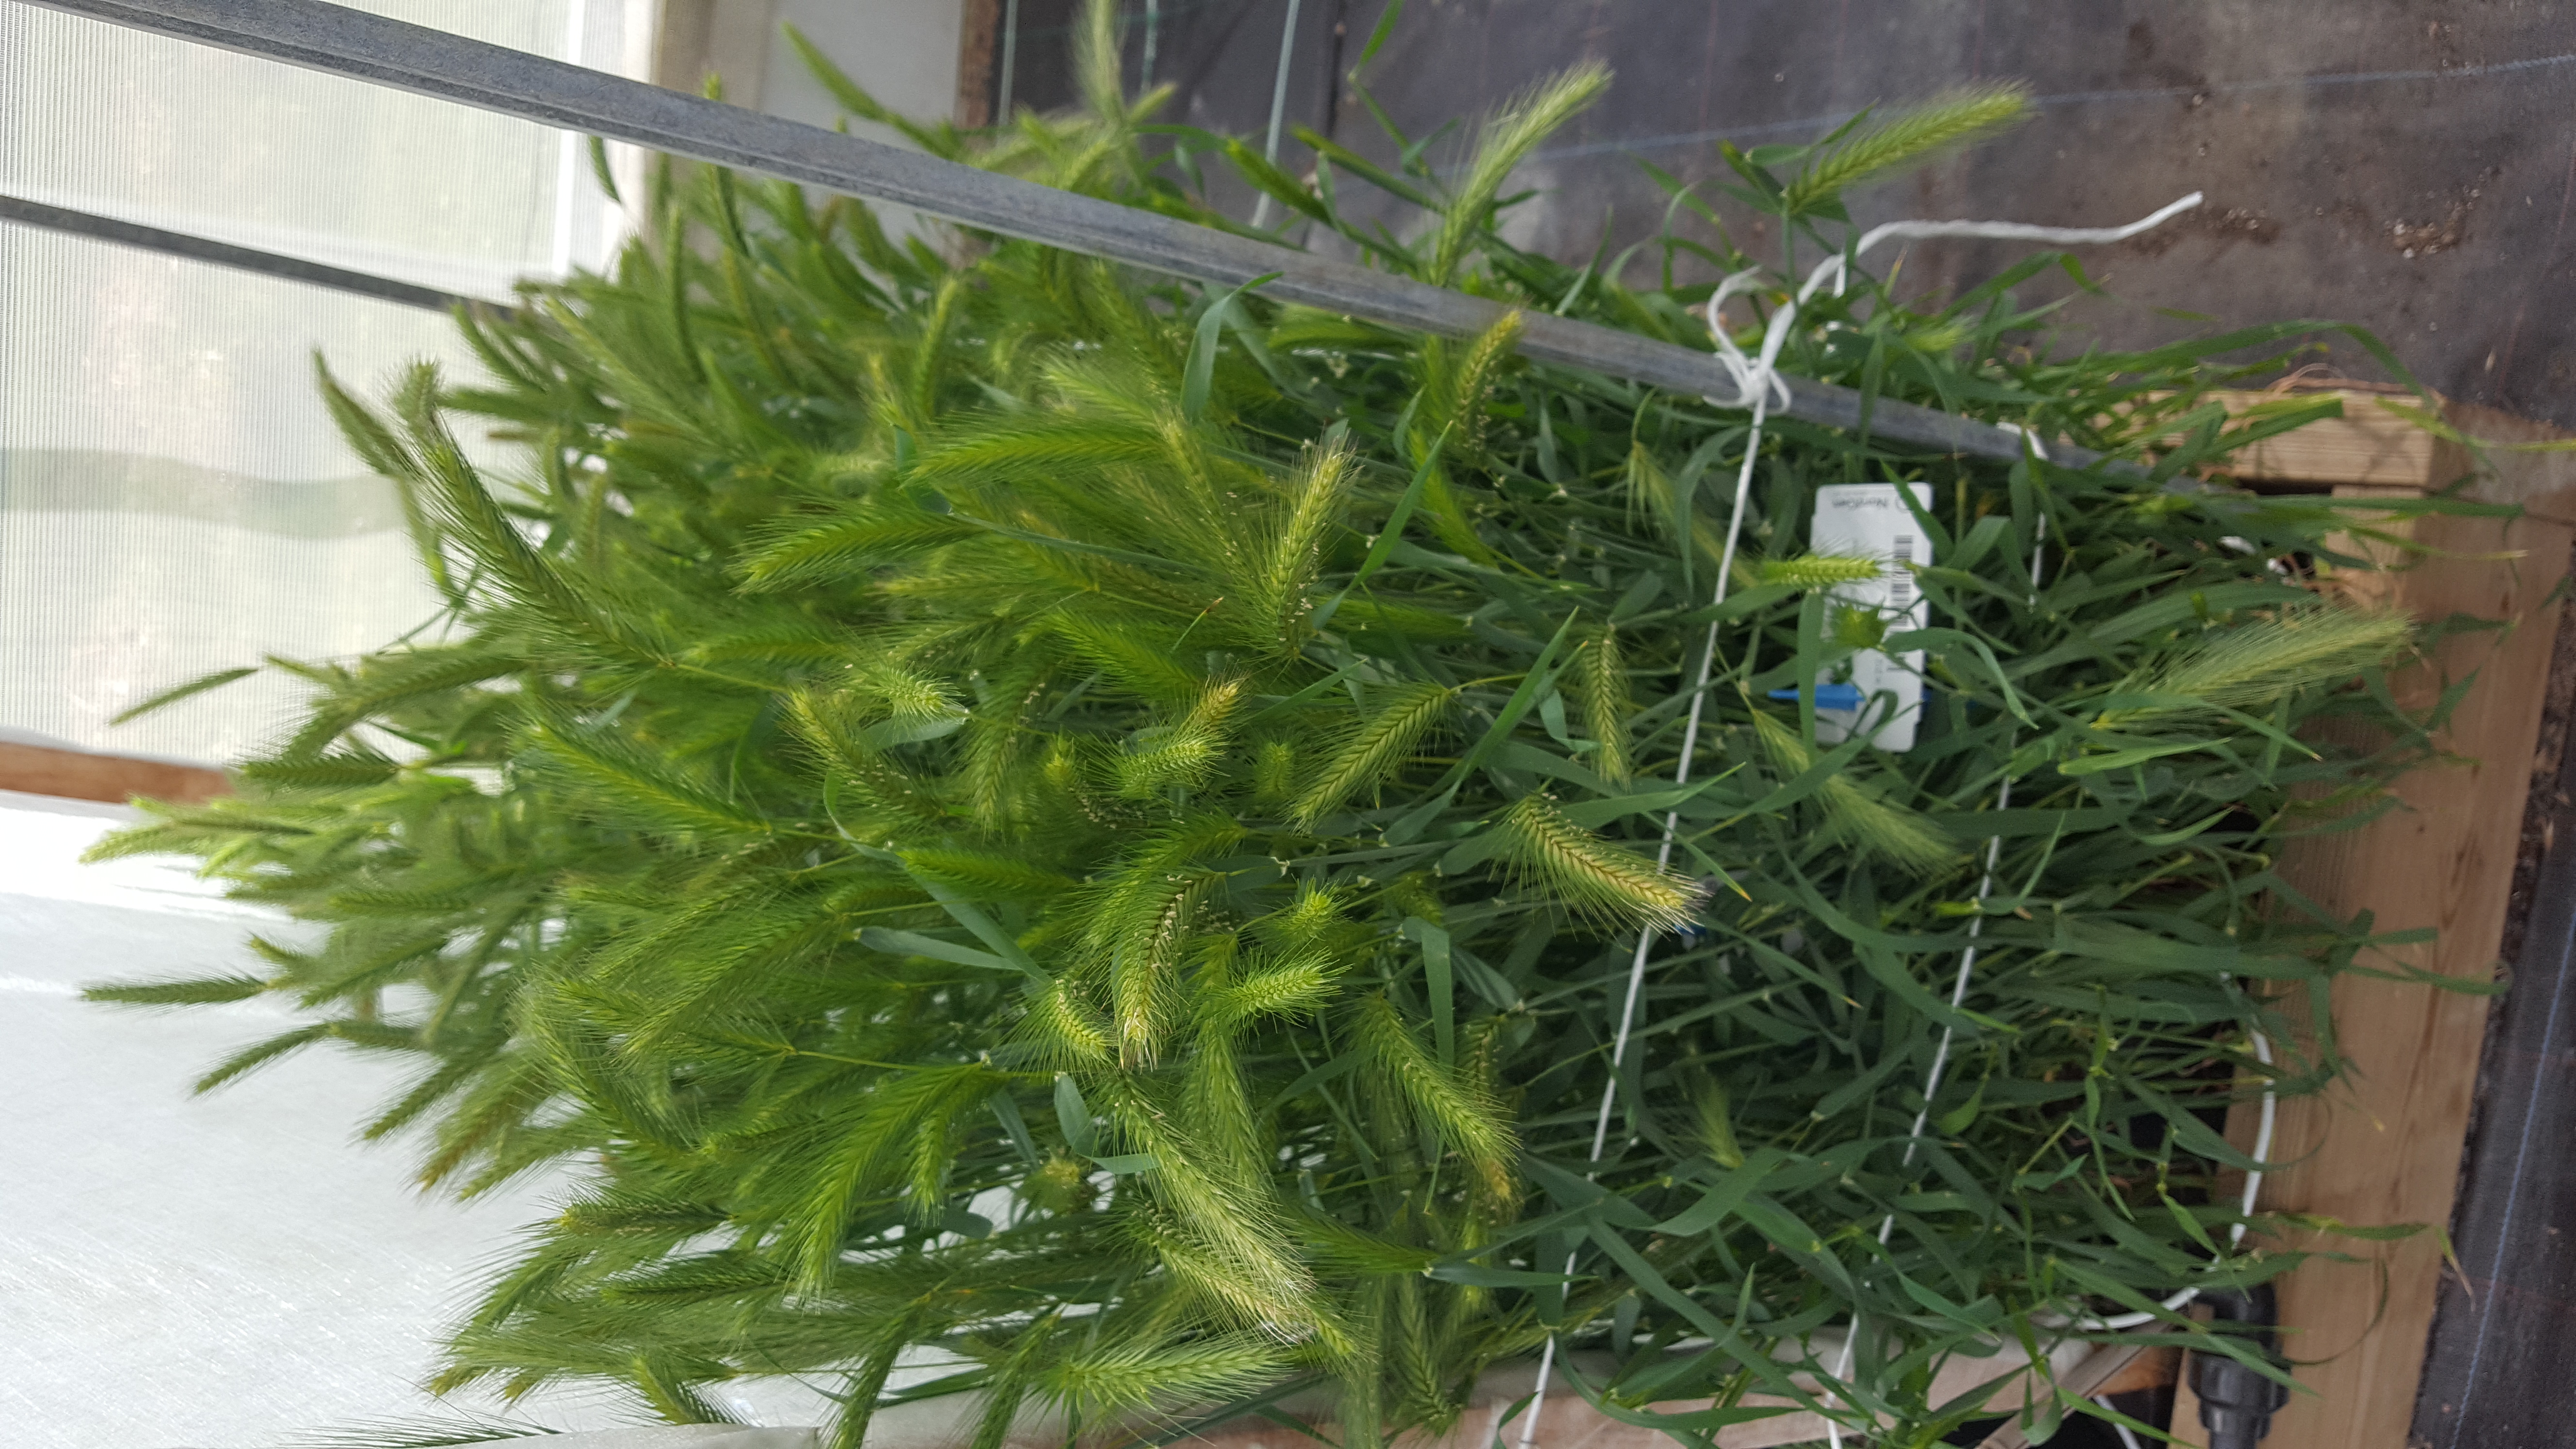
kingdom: Plantae
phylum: Tracheophyta
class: Liliopsida
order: Poales
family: Poaceae
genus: Hordeum
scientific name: Hordeum murinum
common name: Wall barley
